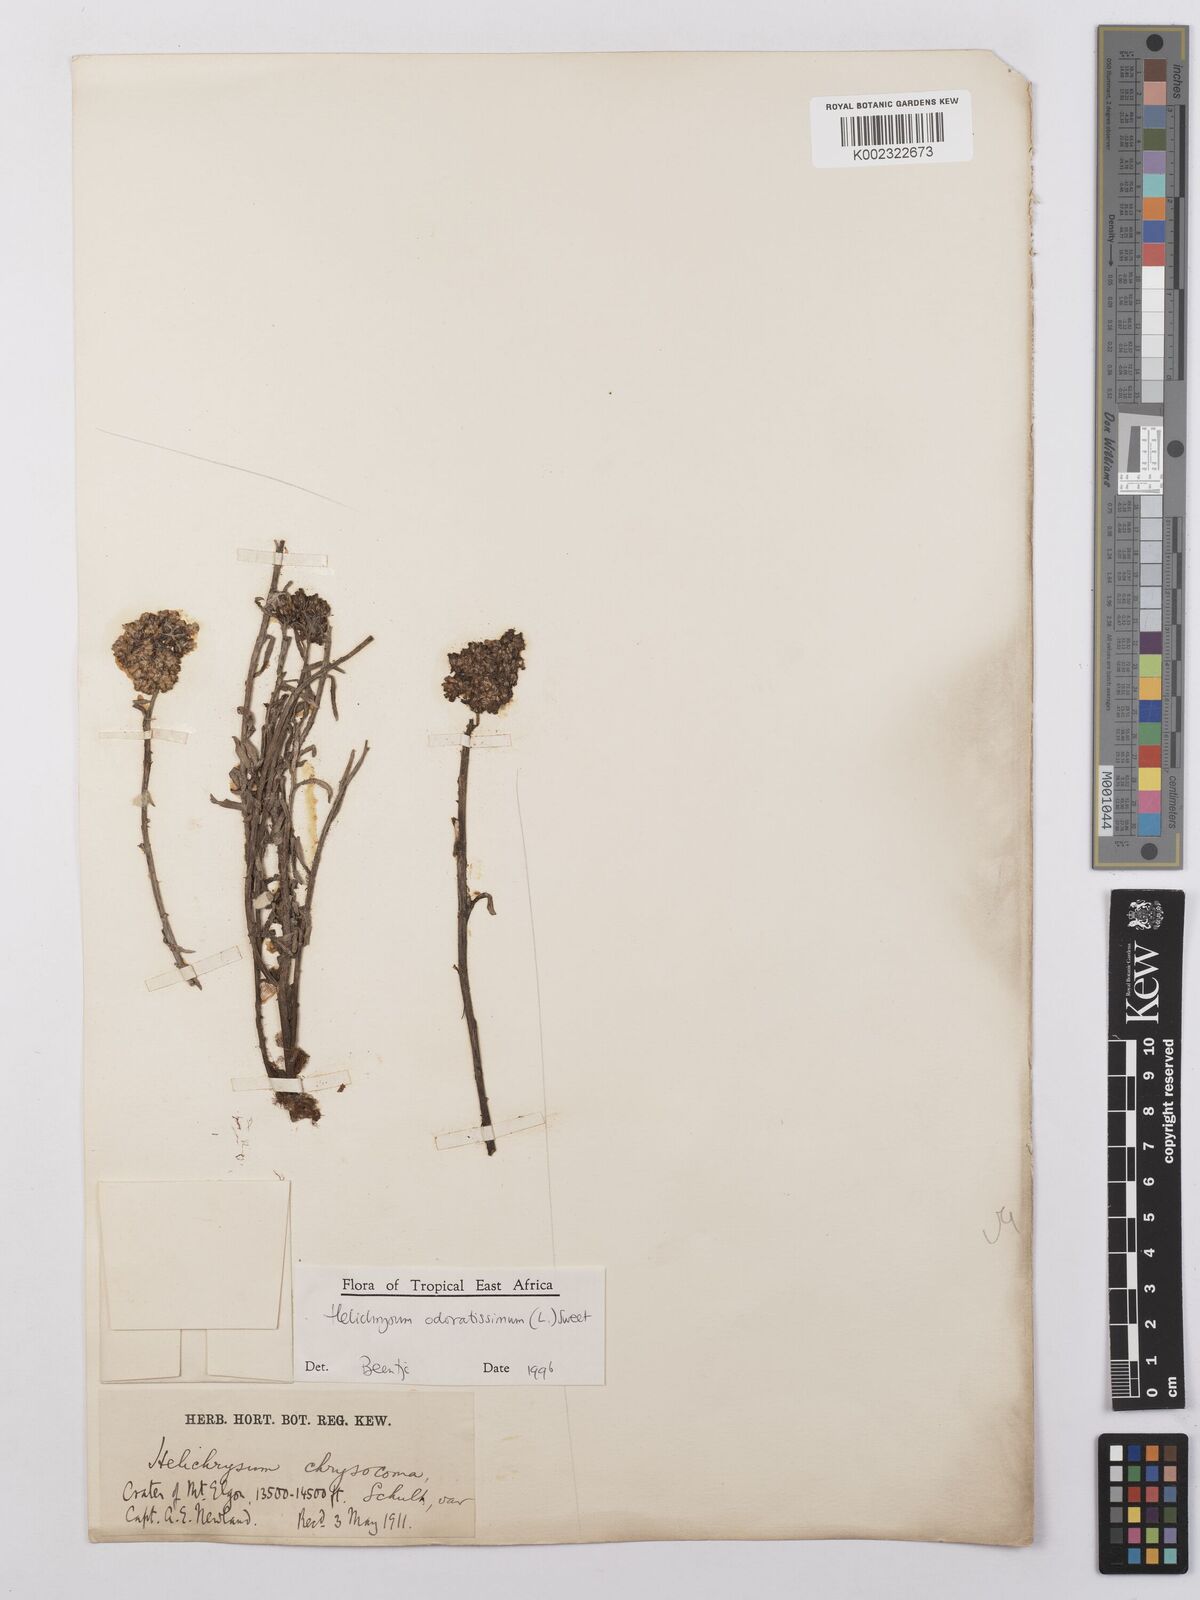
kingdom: Plantae
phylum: Tracheophyta
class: Magnoliopsida
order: Asterales
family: Asteraceae
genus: Helichrysum
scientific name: Helichrysum odoratissimum
